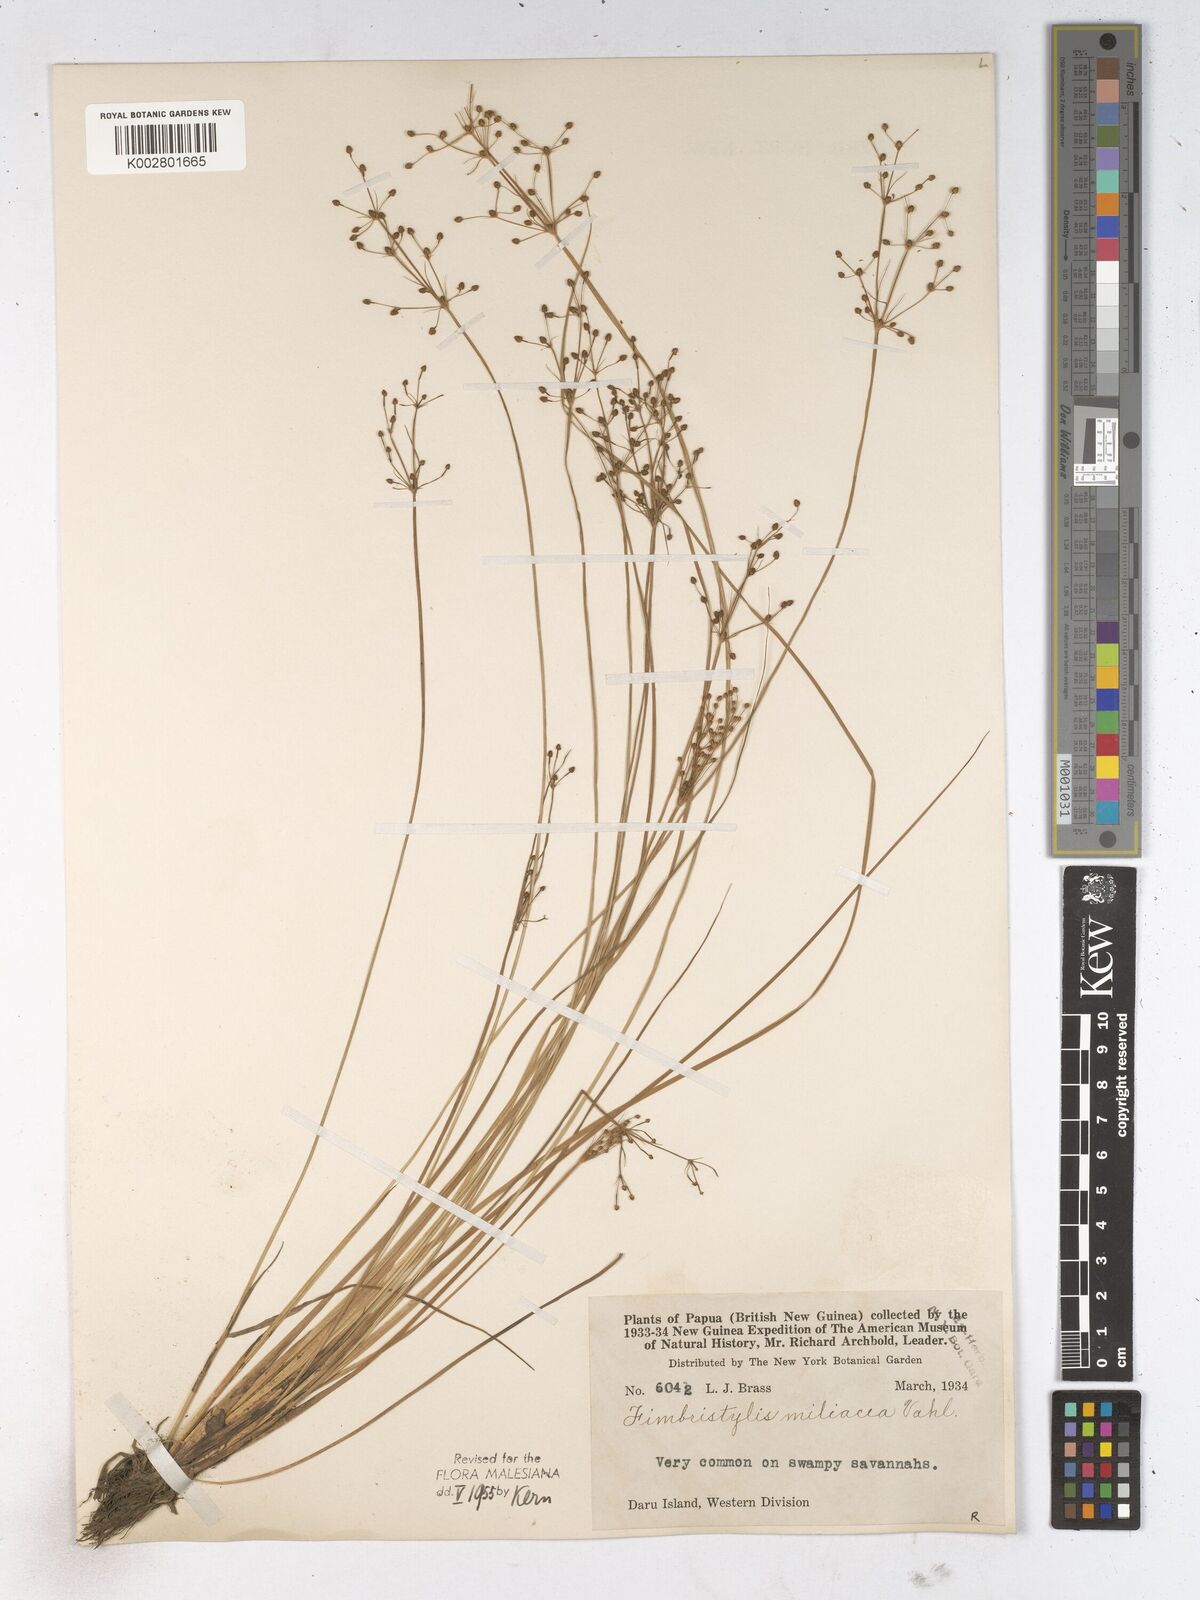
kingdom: Plantae
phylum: Tracheophyta
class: Liliopsida
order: Poales
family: Cyperaceae
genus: Fimbristylis
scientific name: Fimbristylis littoralis
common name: Fimbry
